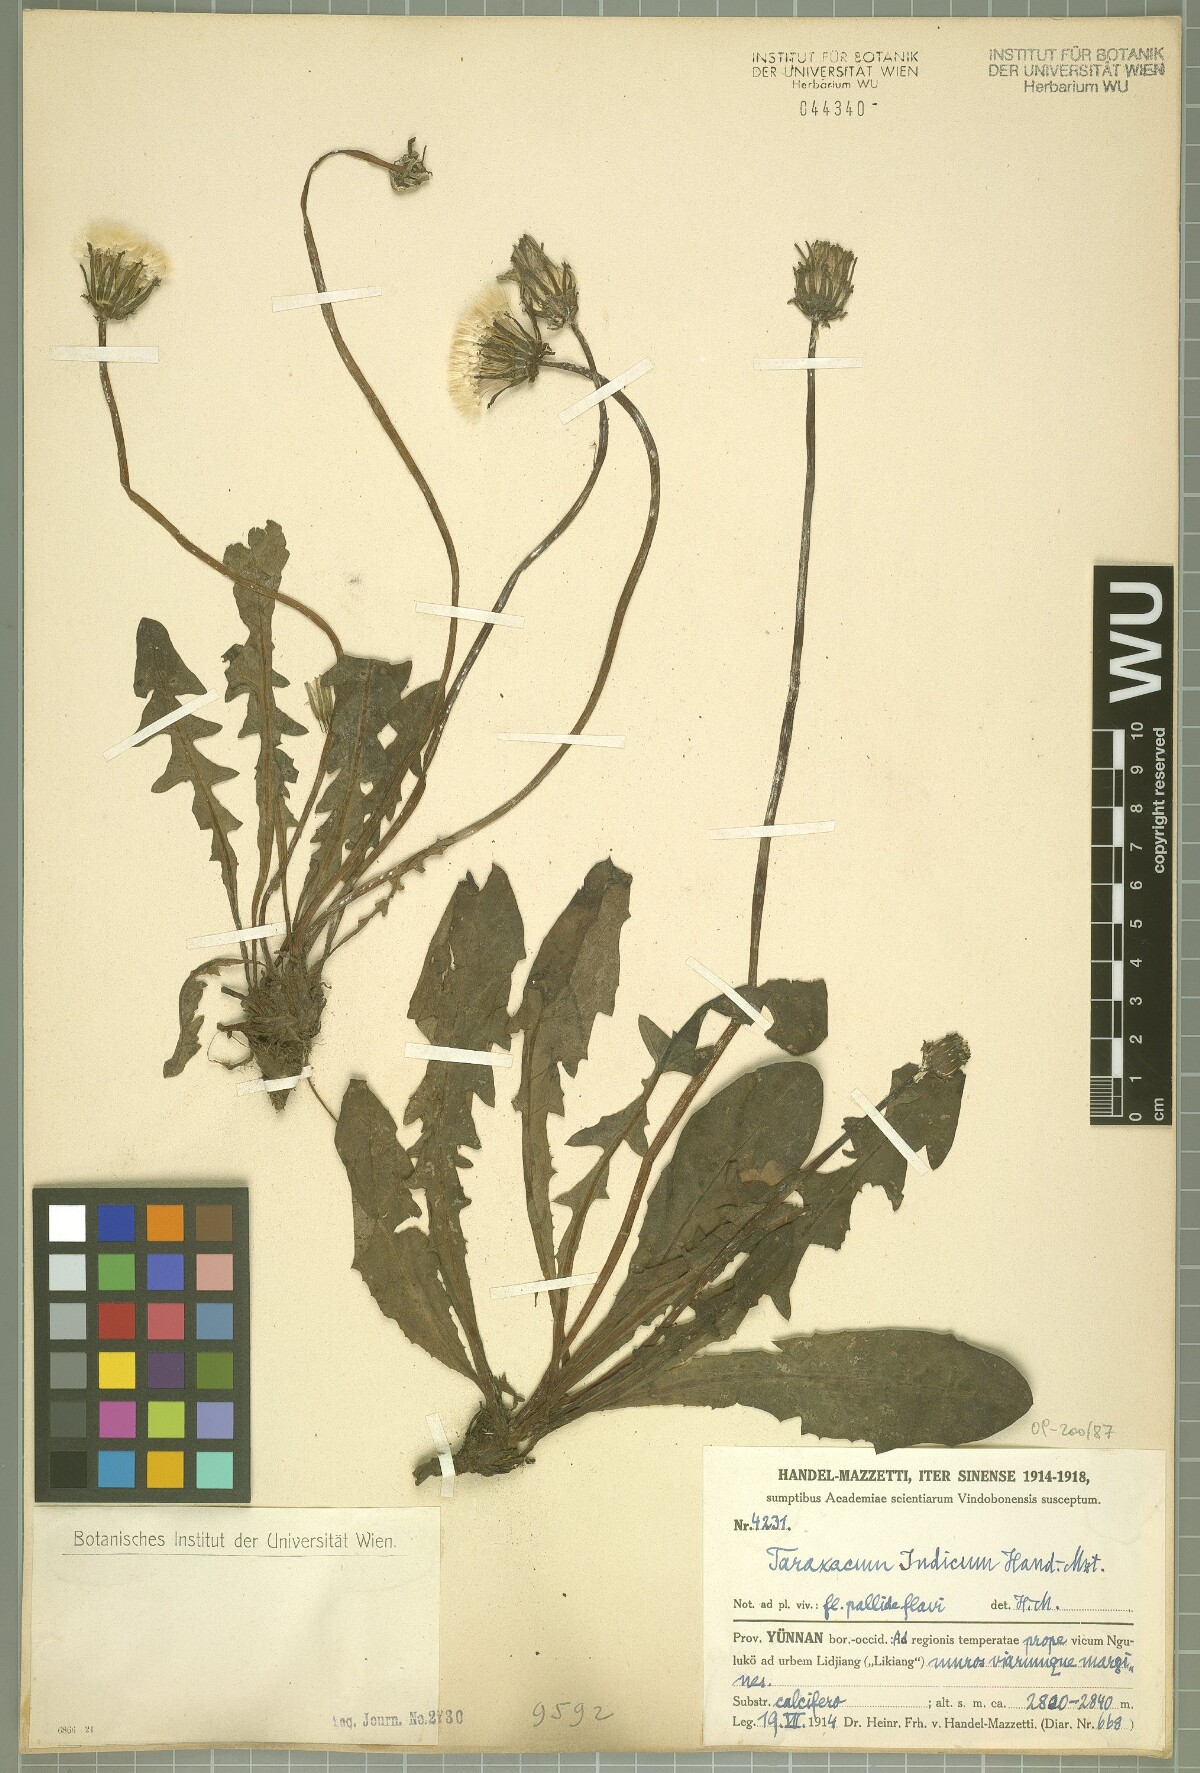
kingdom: Plantae
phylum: Tracheophyta
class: Magnoliopsida
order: Asterales
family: Asteraceae
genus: Taraxacum
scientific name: Taraxacum indicum
